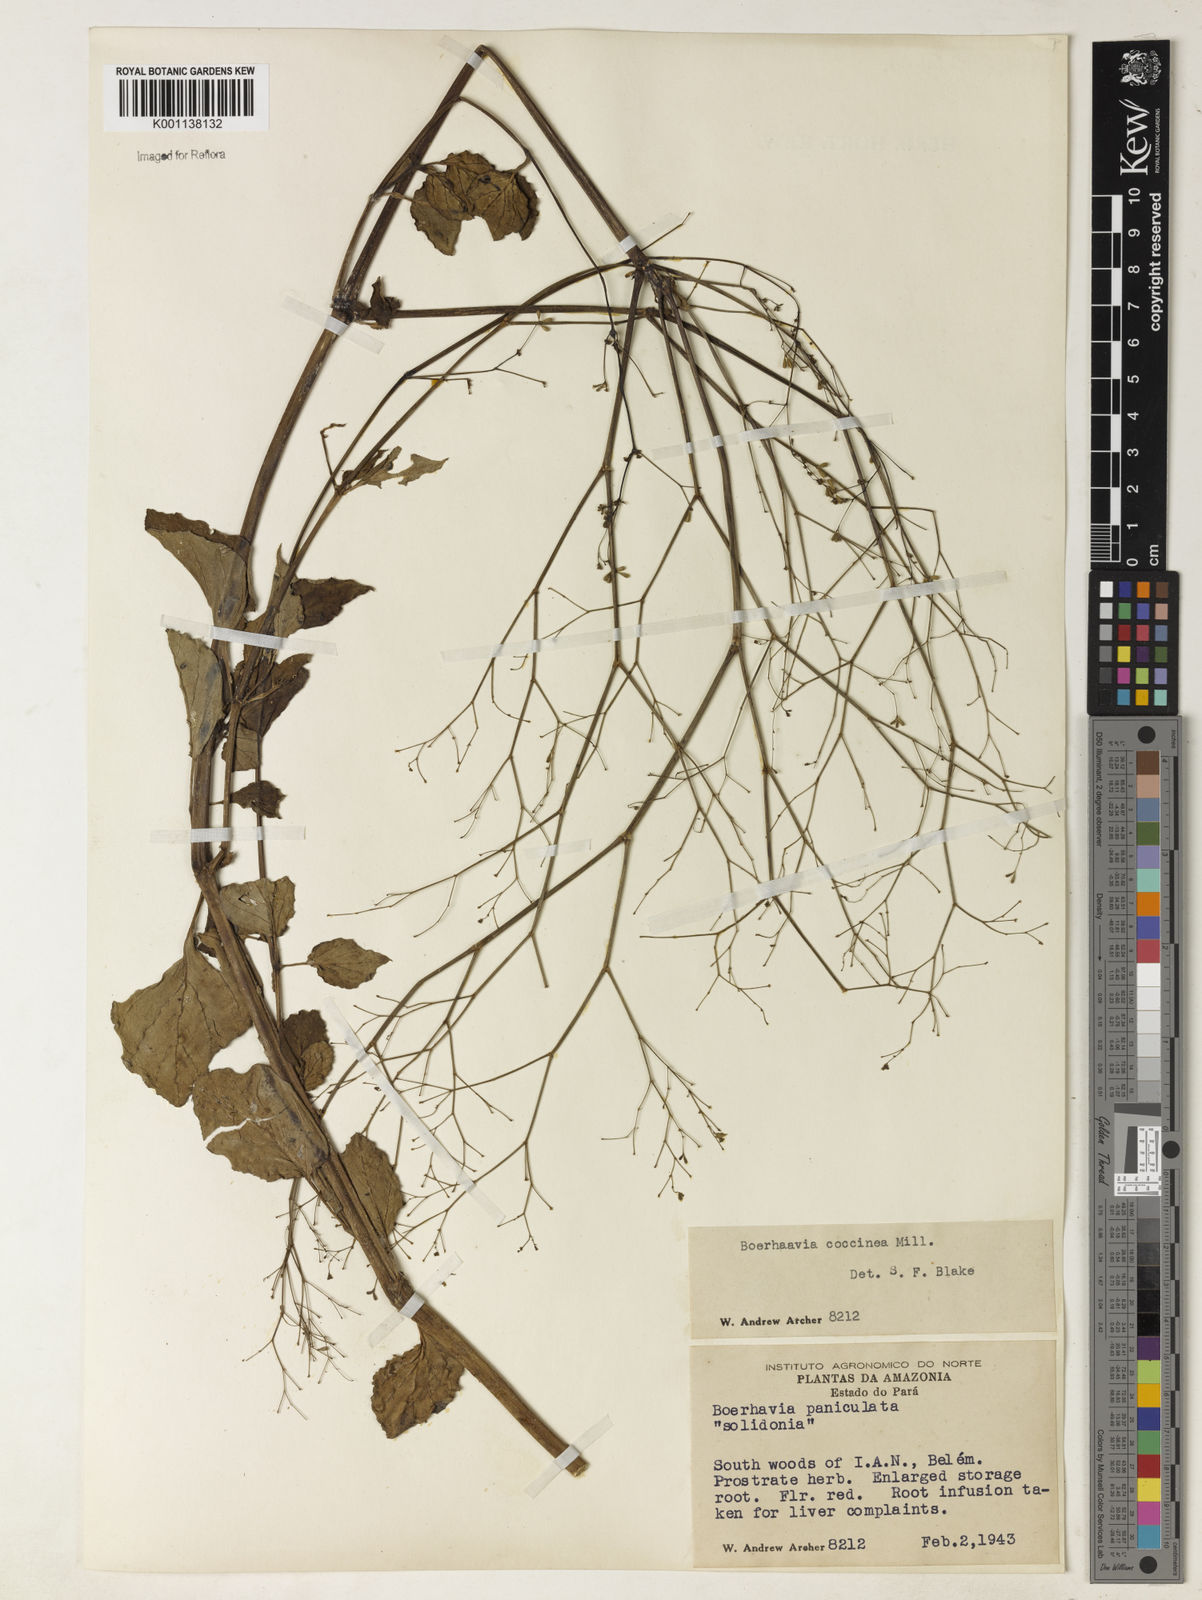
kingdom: Plantae
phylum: Tracheophyta
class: Magnoliopsida
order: Caryophyllales
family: Nyctaginaceae
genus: Boerhavia
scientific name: Boerhavia diffusa
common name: Red spiderling
